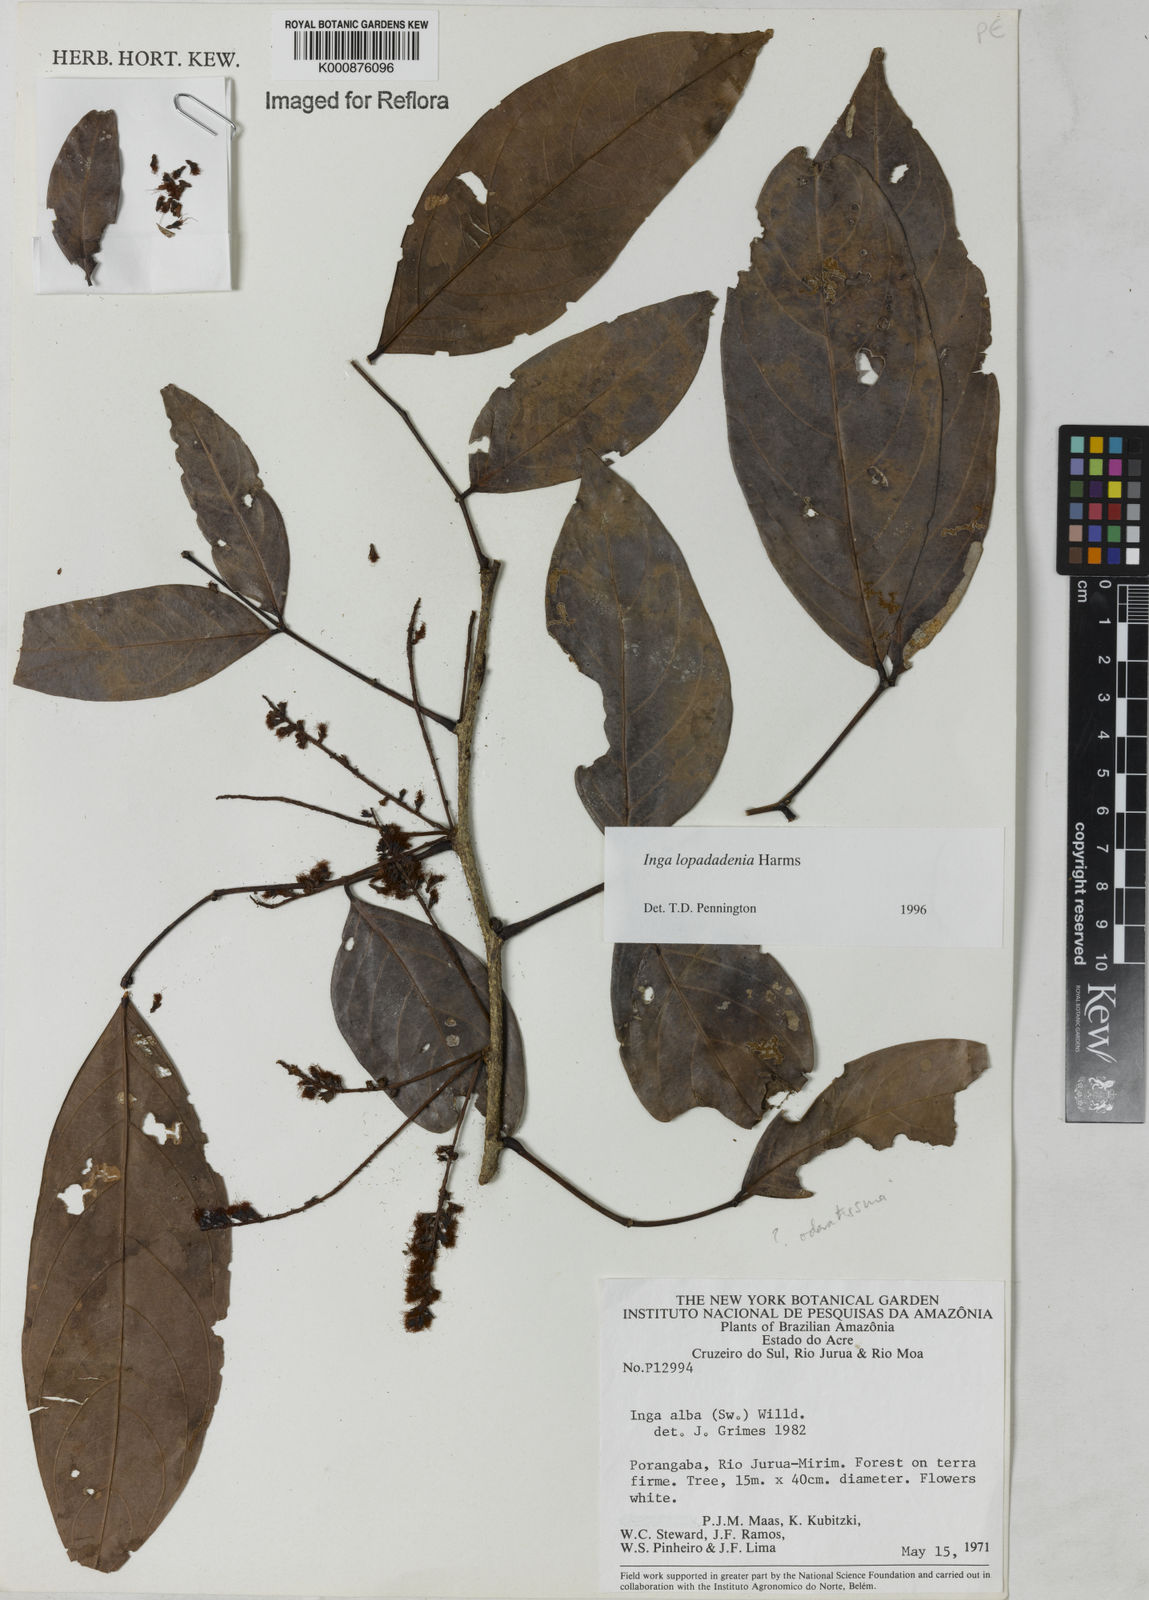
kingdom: Plantae
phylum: Tracheophyta
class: Magnoliopsida
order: Fabales
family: Fabaceae
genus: Inga
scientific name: Inga lopadadenia
